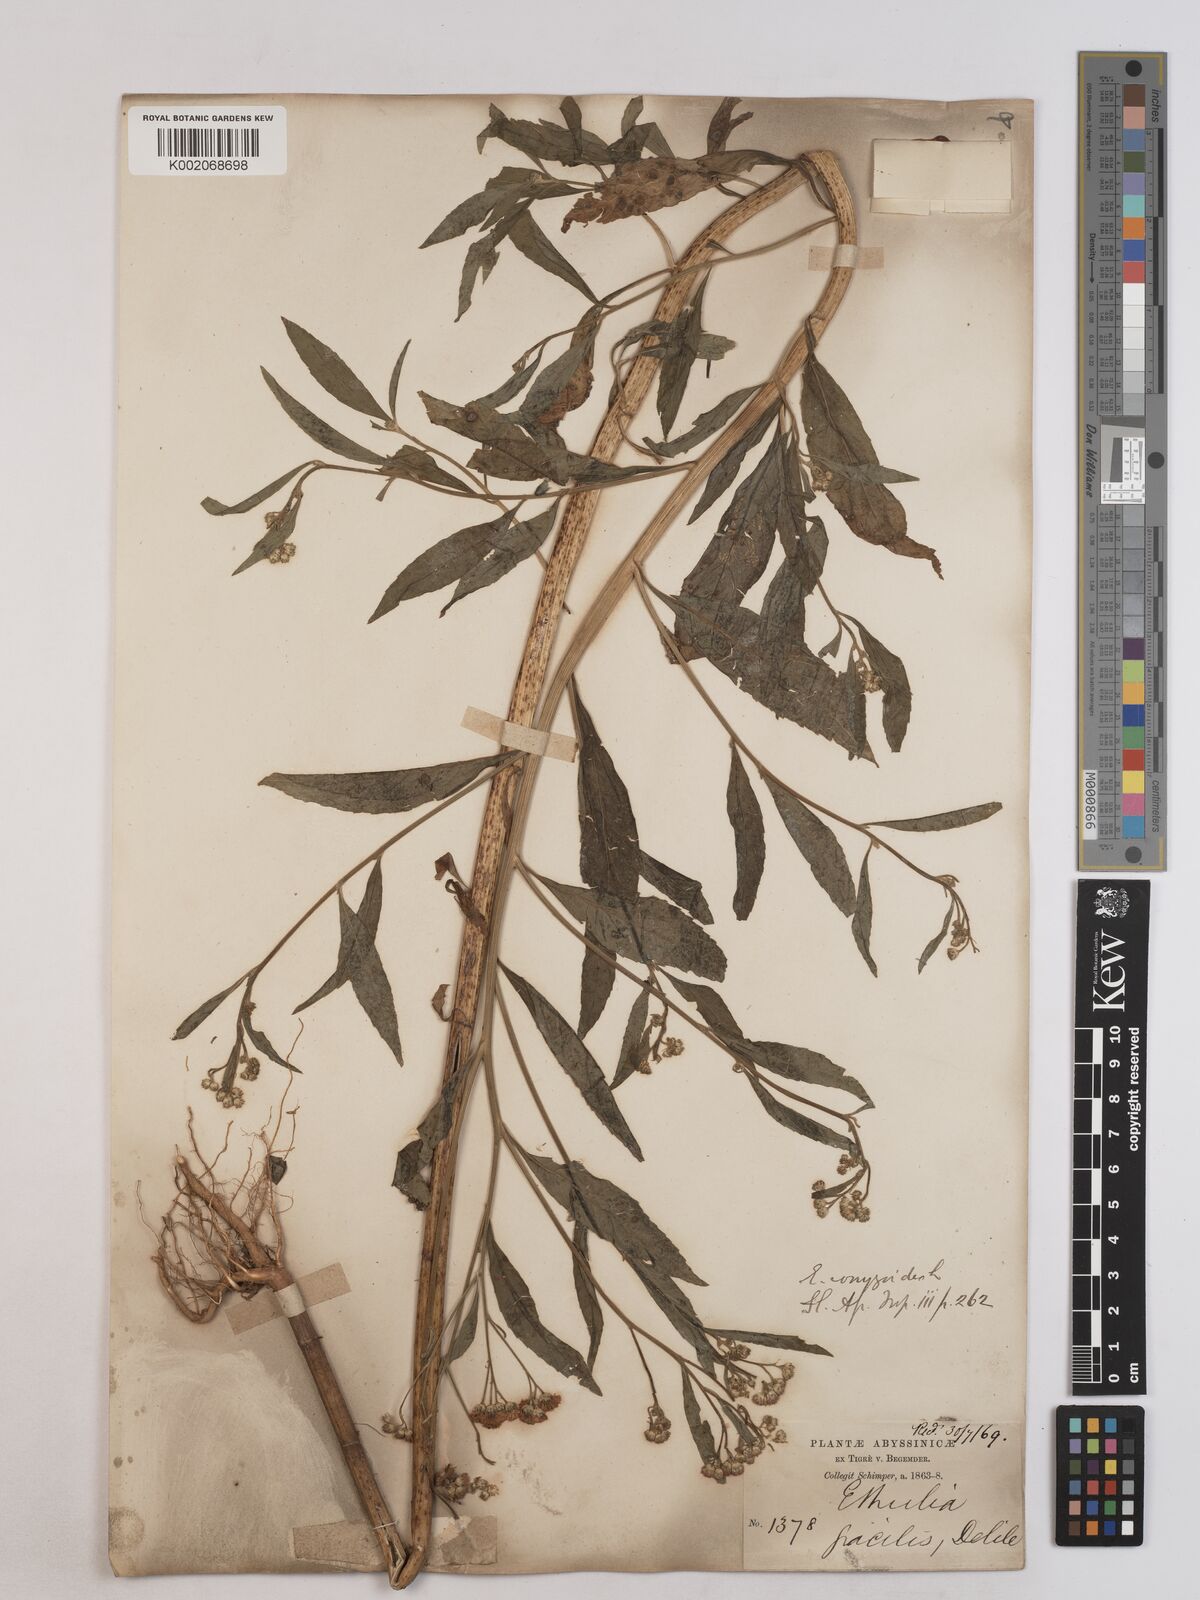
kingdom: Plantae
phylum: Tracheophyta
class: Magnoliopsida
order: Asterales
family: Asteraceae
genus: Ethulia
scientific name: Ethulia gracilis
